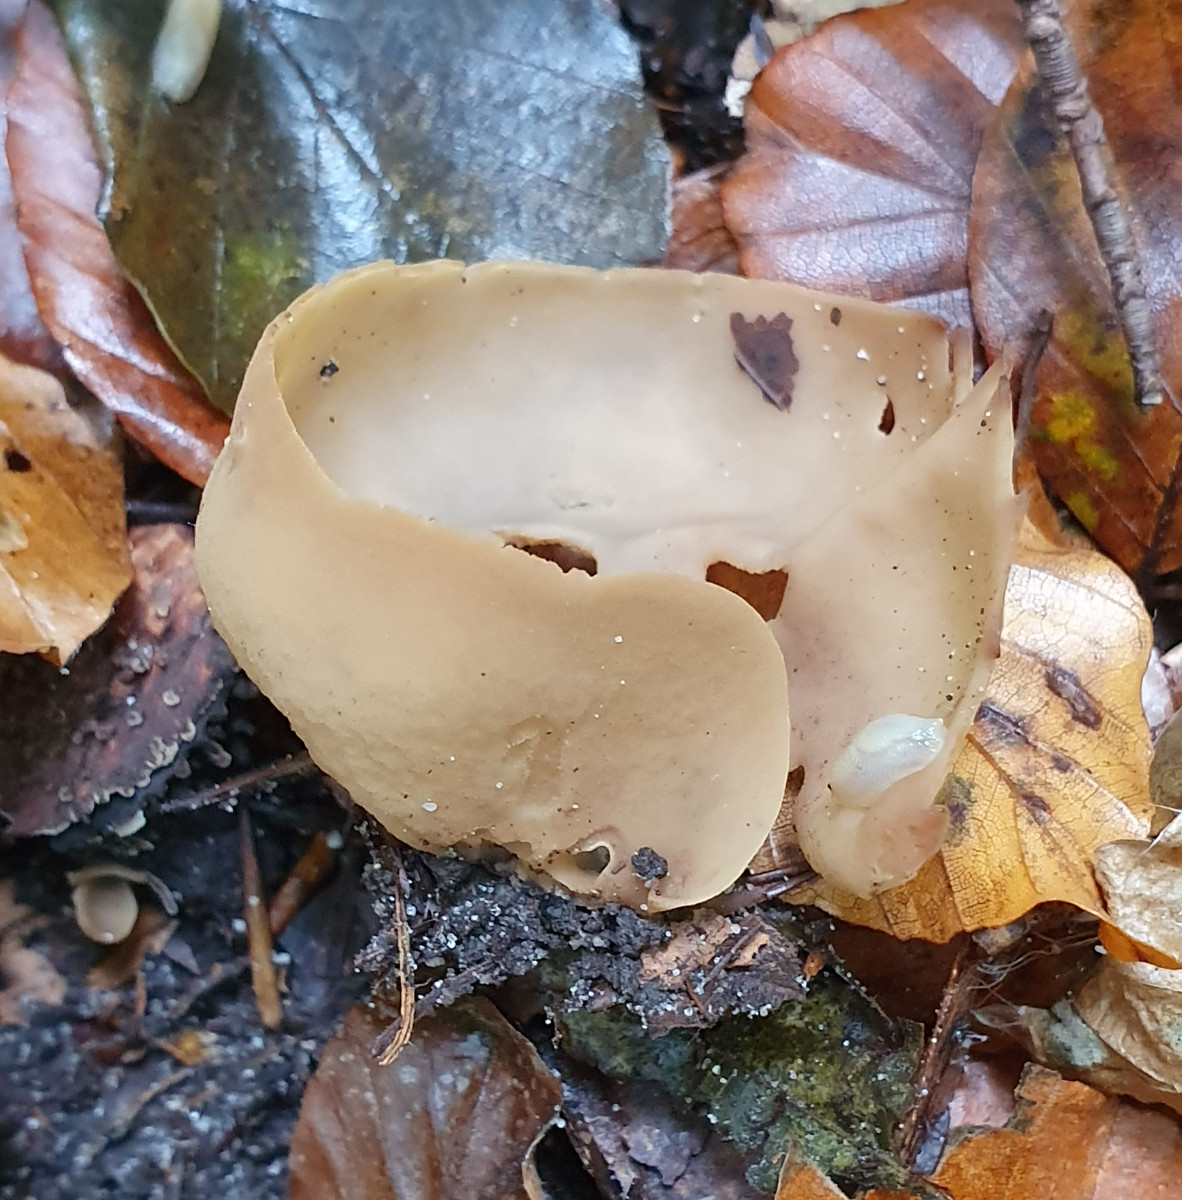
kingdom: Fungi
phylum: Ascomycota
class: Pezizomycetes
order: Pezizales
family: Otideaceae
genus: Otidea
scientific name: Otidea alutacea
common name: læder-ørebæger
